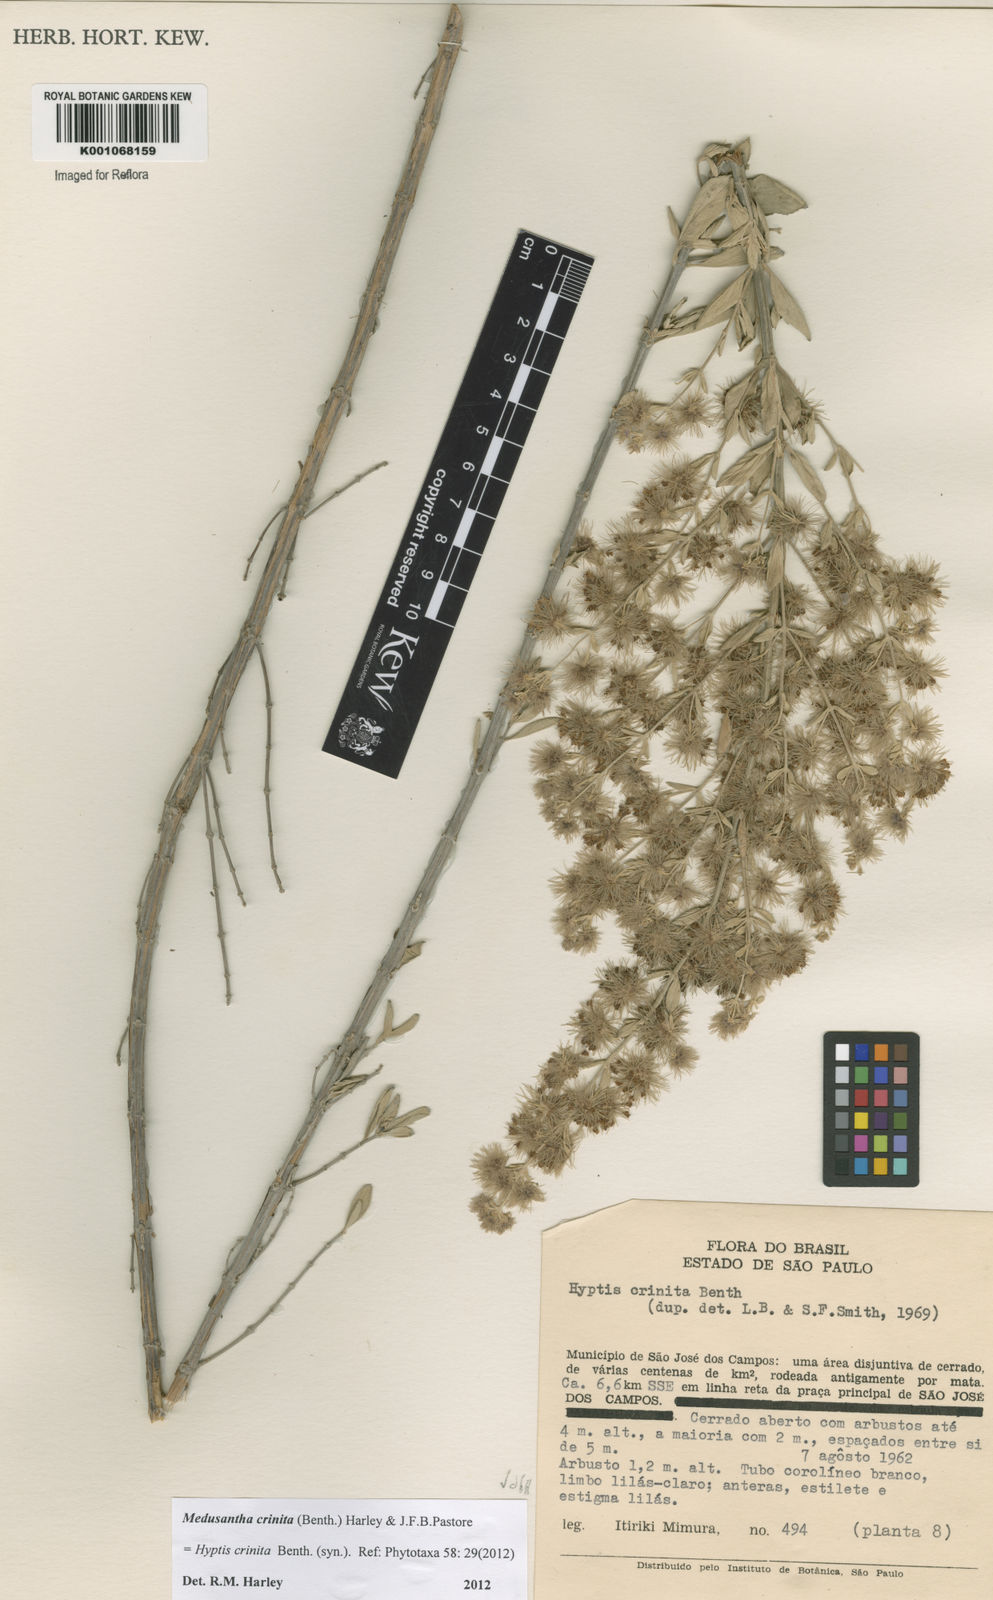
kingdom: Plantae
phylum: Tracheophyta
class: Magnoliopsida
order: Lamiales
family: Lamiaceae
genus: Medusantha
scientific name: Medusantha crinita
